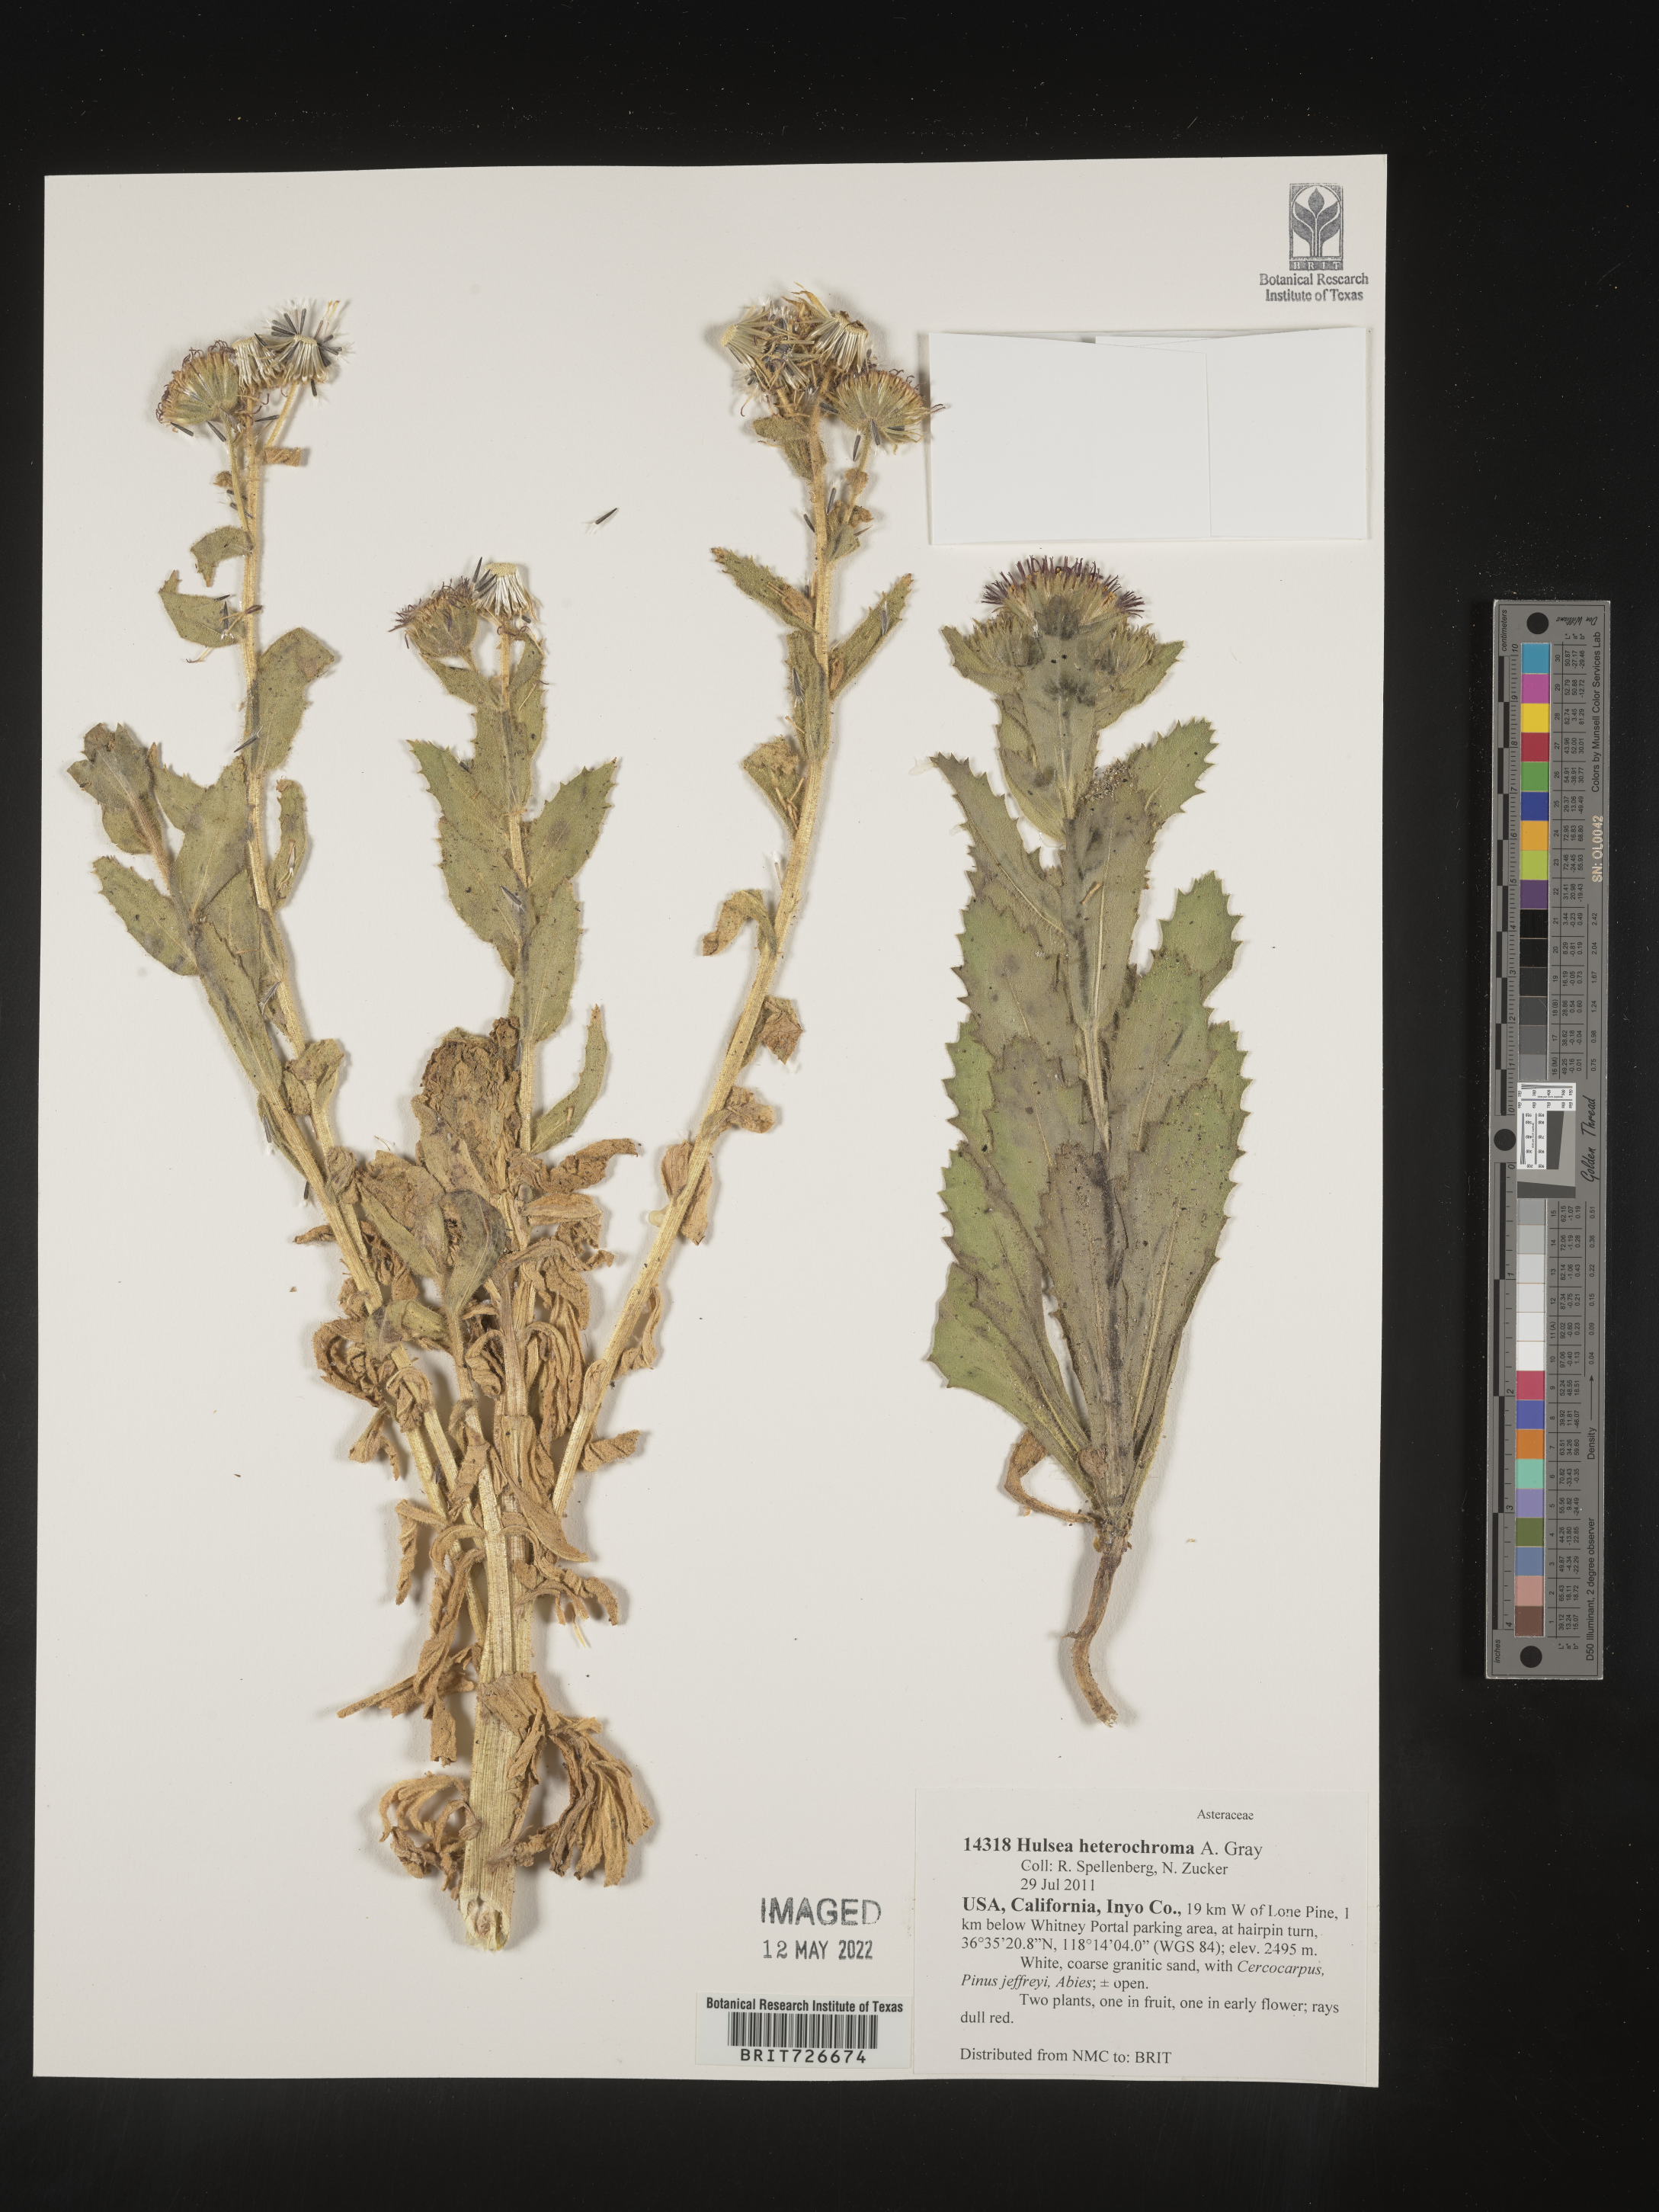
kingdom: Plantae
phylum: Tracheophyta
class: Magnoliopsida
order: Asterales
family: Asteraceae
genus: Hulsea
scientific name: Hulsea
